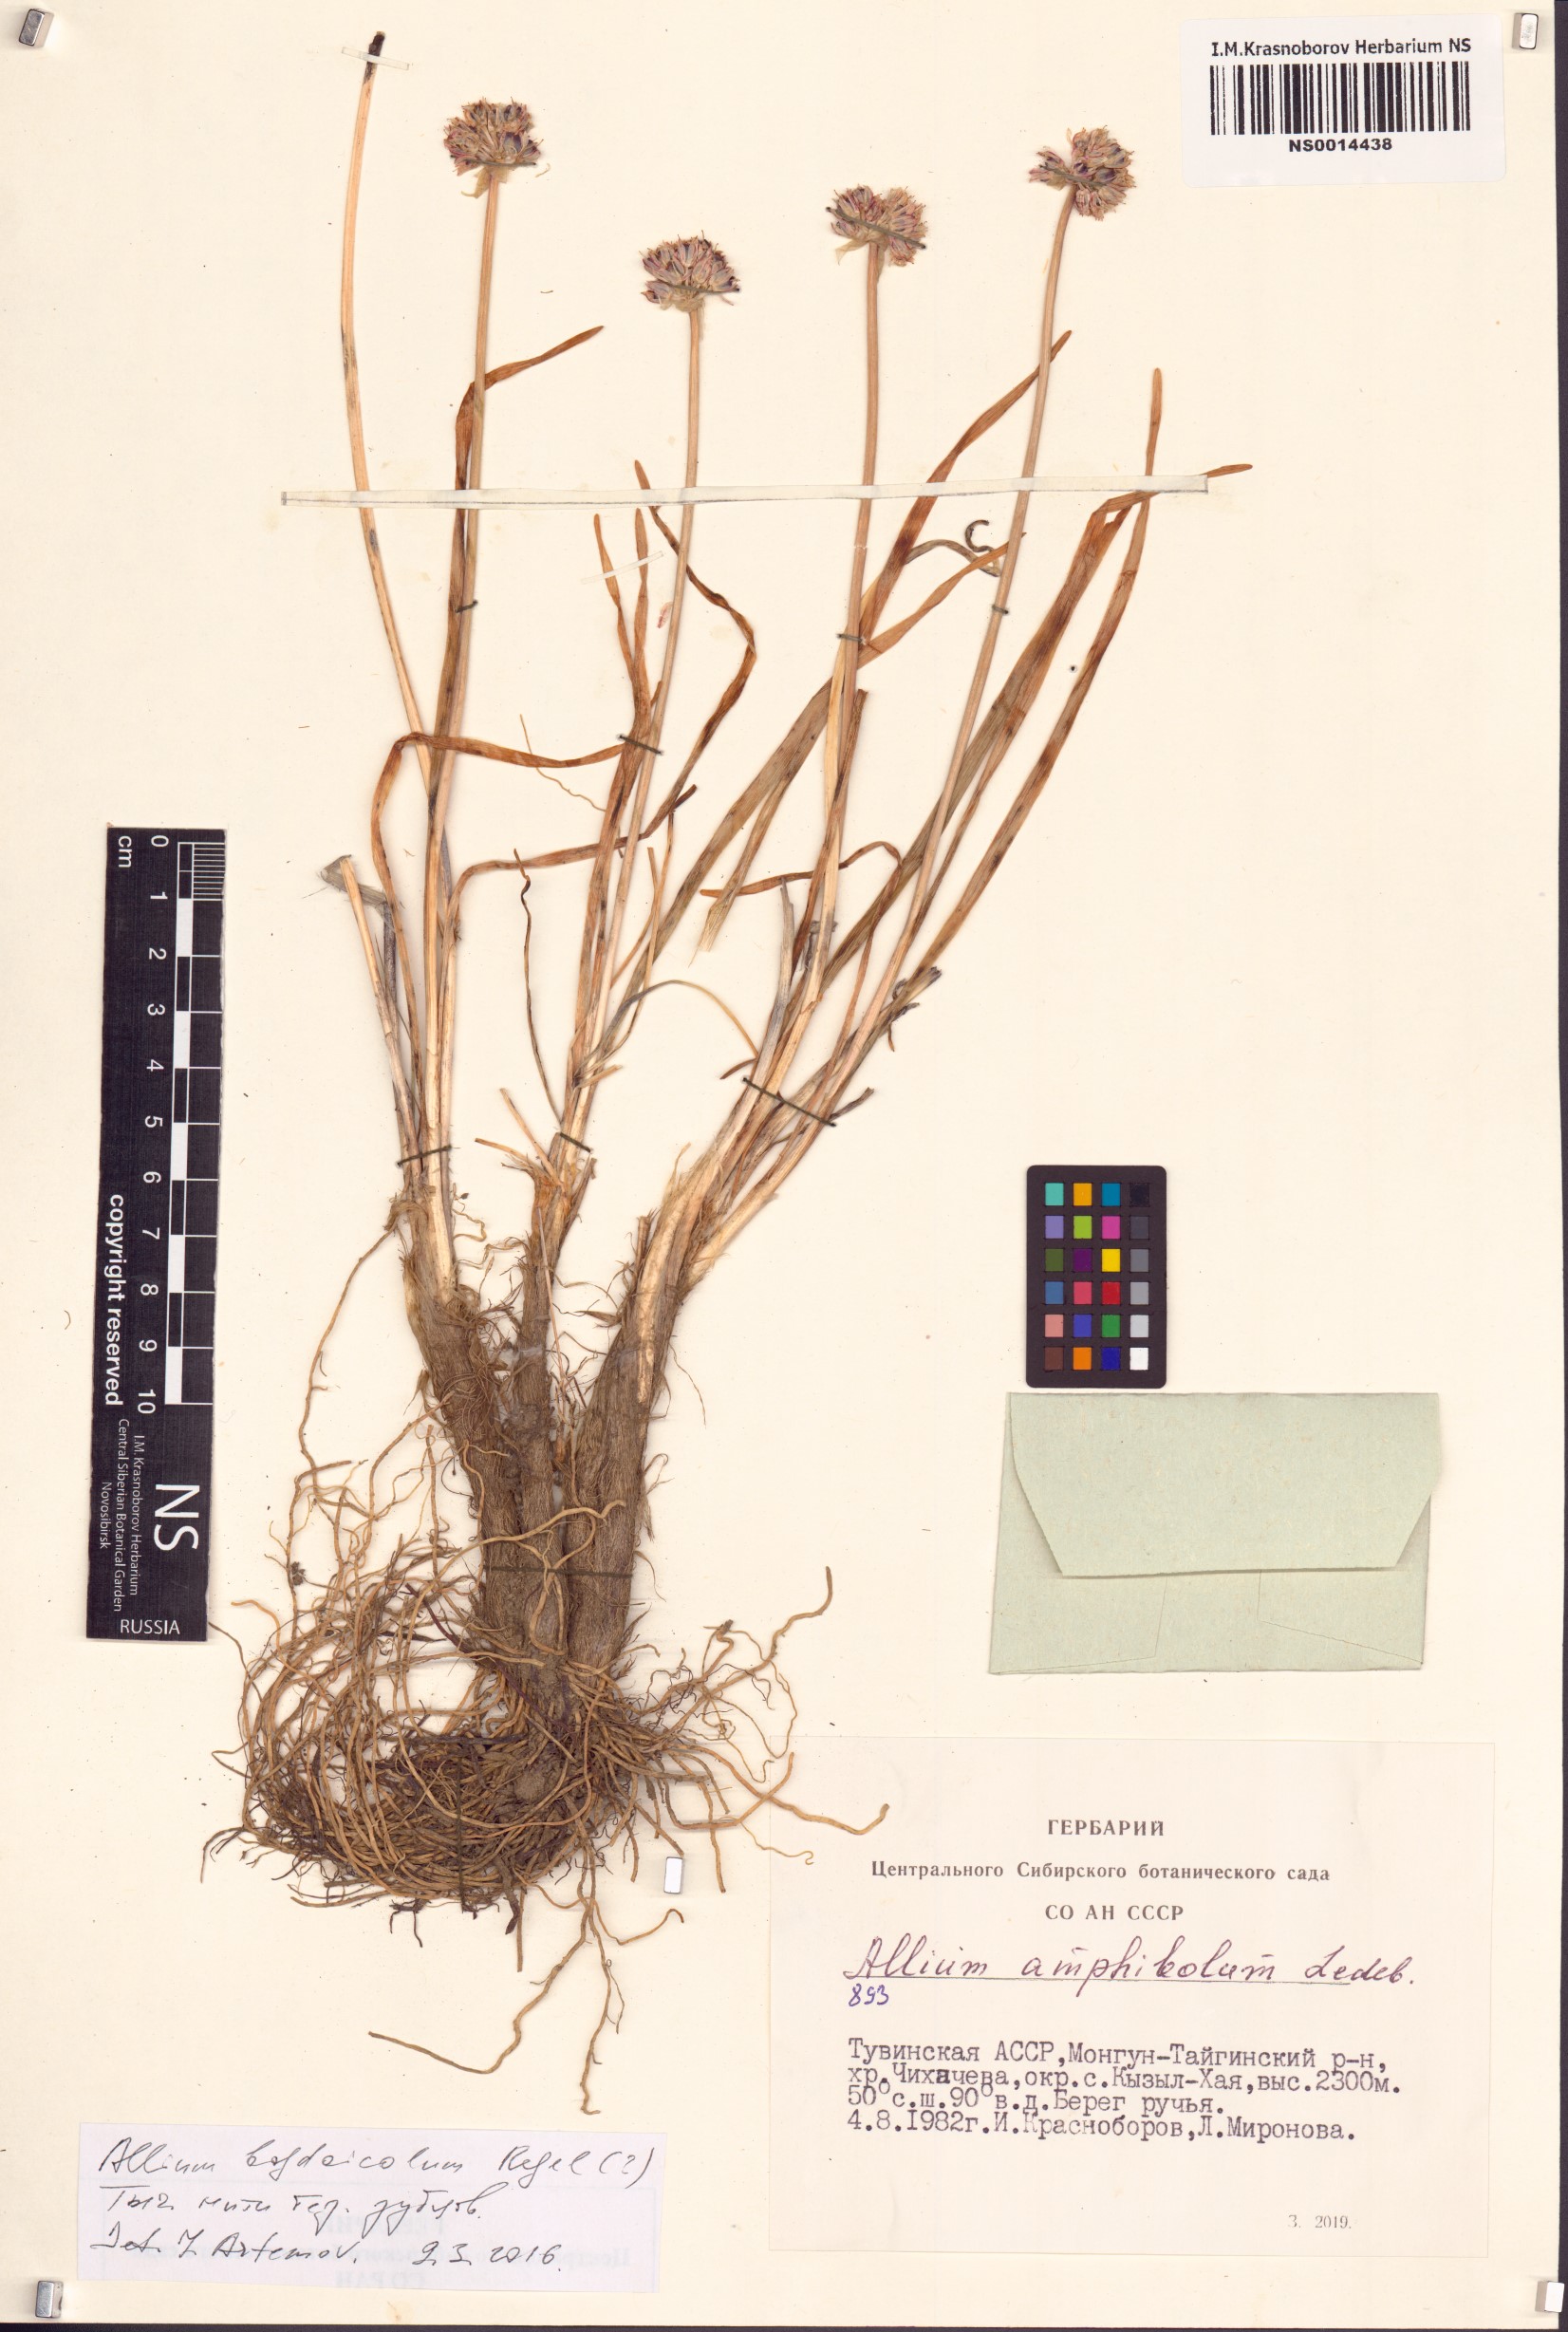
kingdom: Plantae
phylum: Tracheophyta
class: Liliopsida
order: Asparagales
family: Amaryllidaceae
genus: Allium
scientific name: Allium schrenkii
